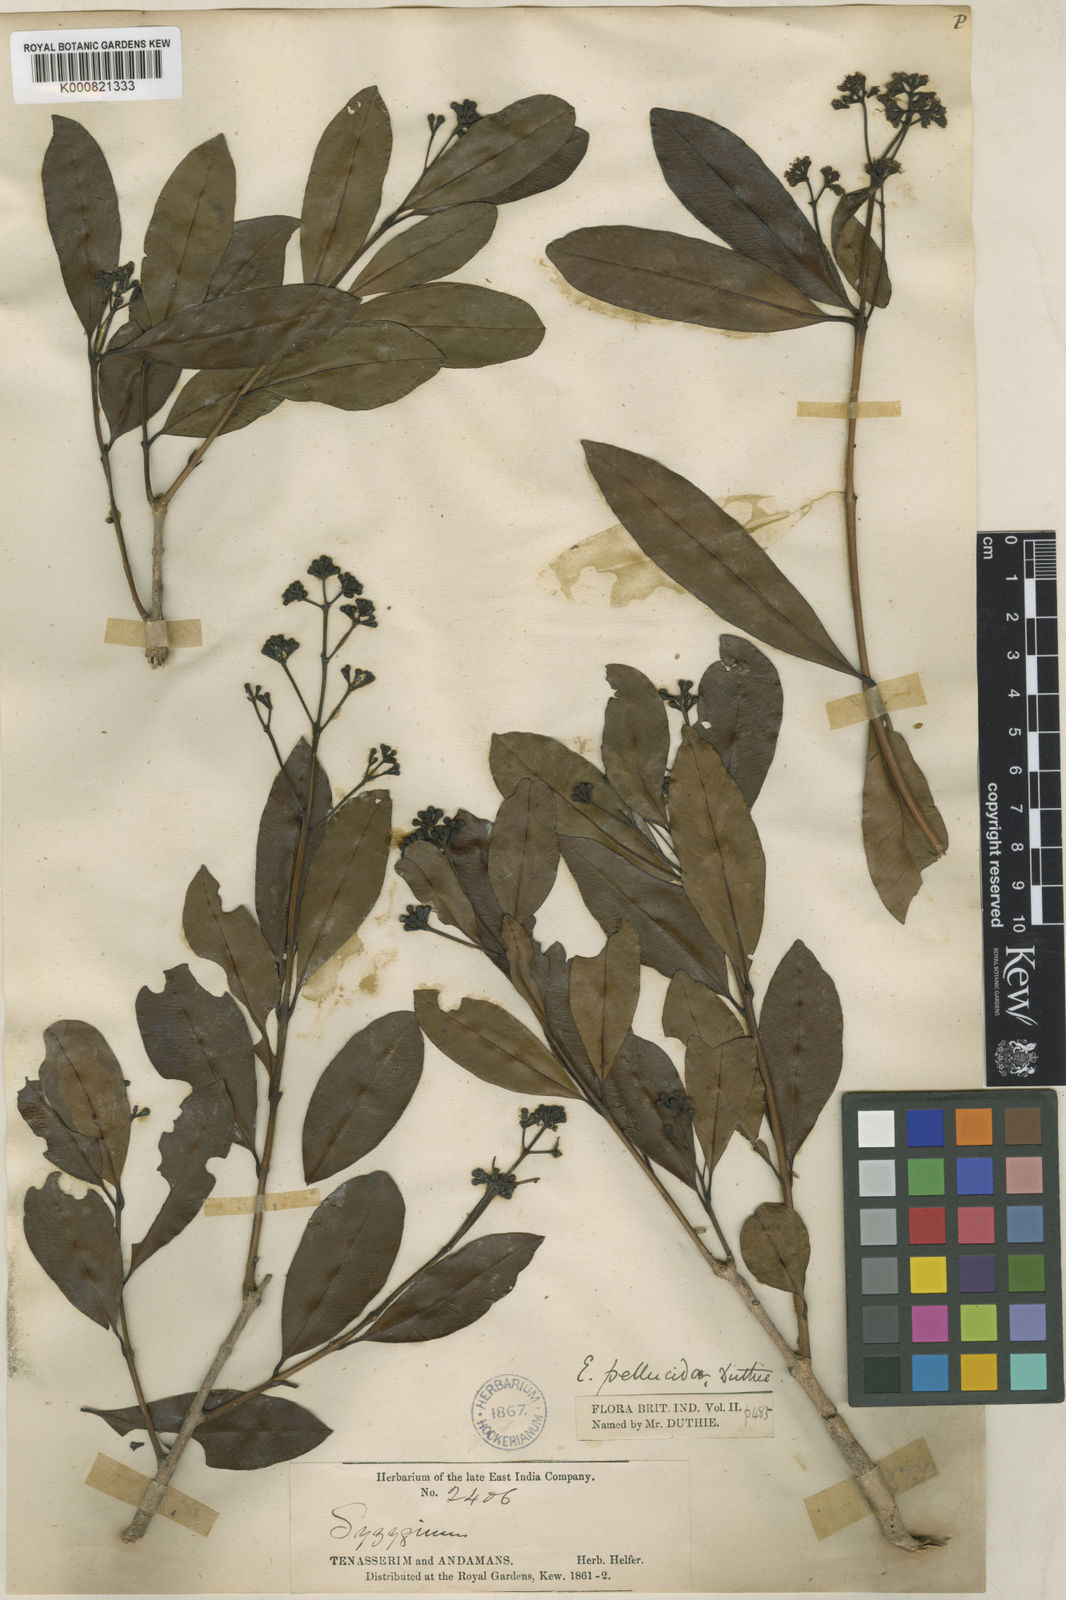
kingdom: Plantae
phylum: Tracheophyta
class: Magnoliopsida
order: Myrtales
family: Myrtaceae
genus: Syzygium
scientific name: Syzygium pellucidum
